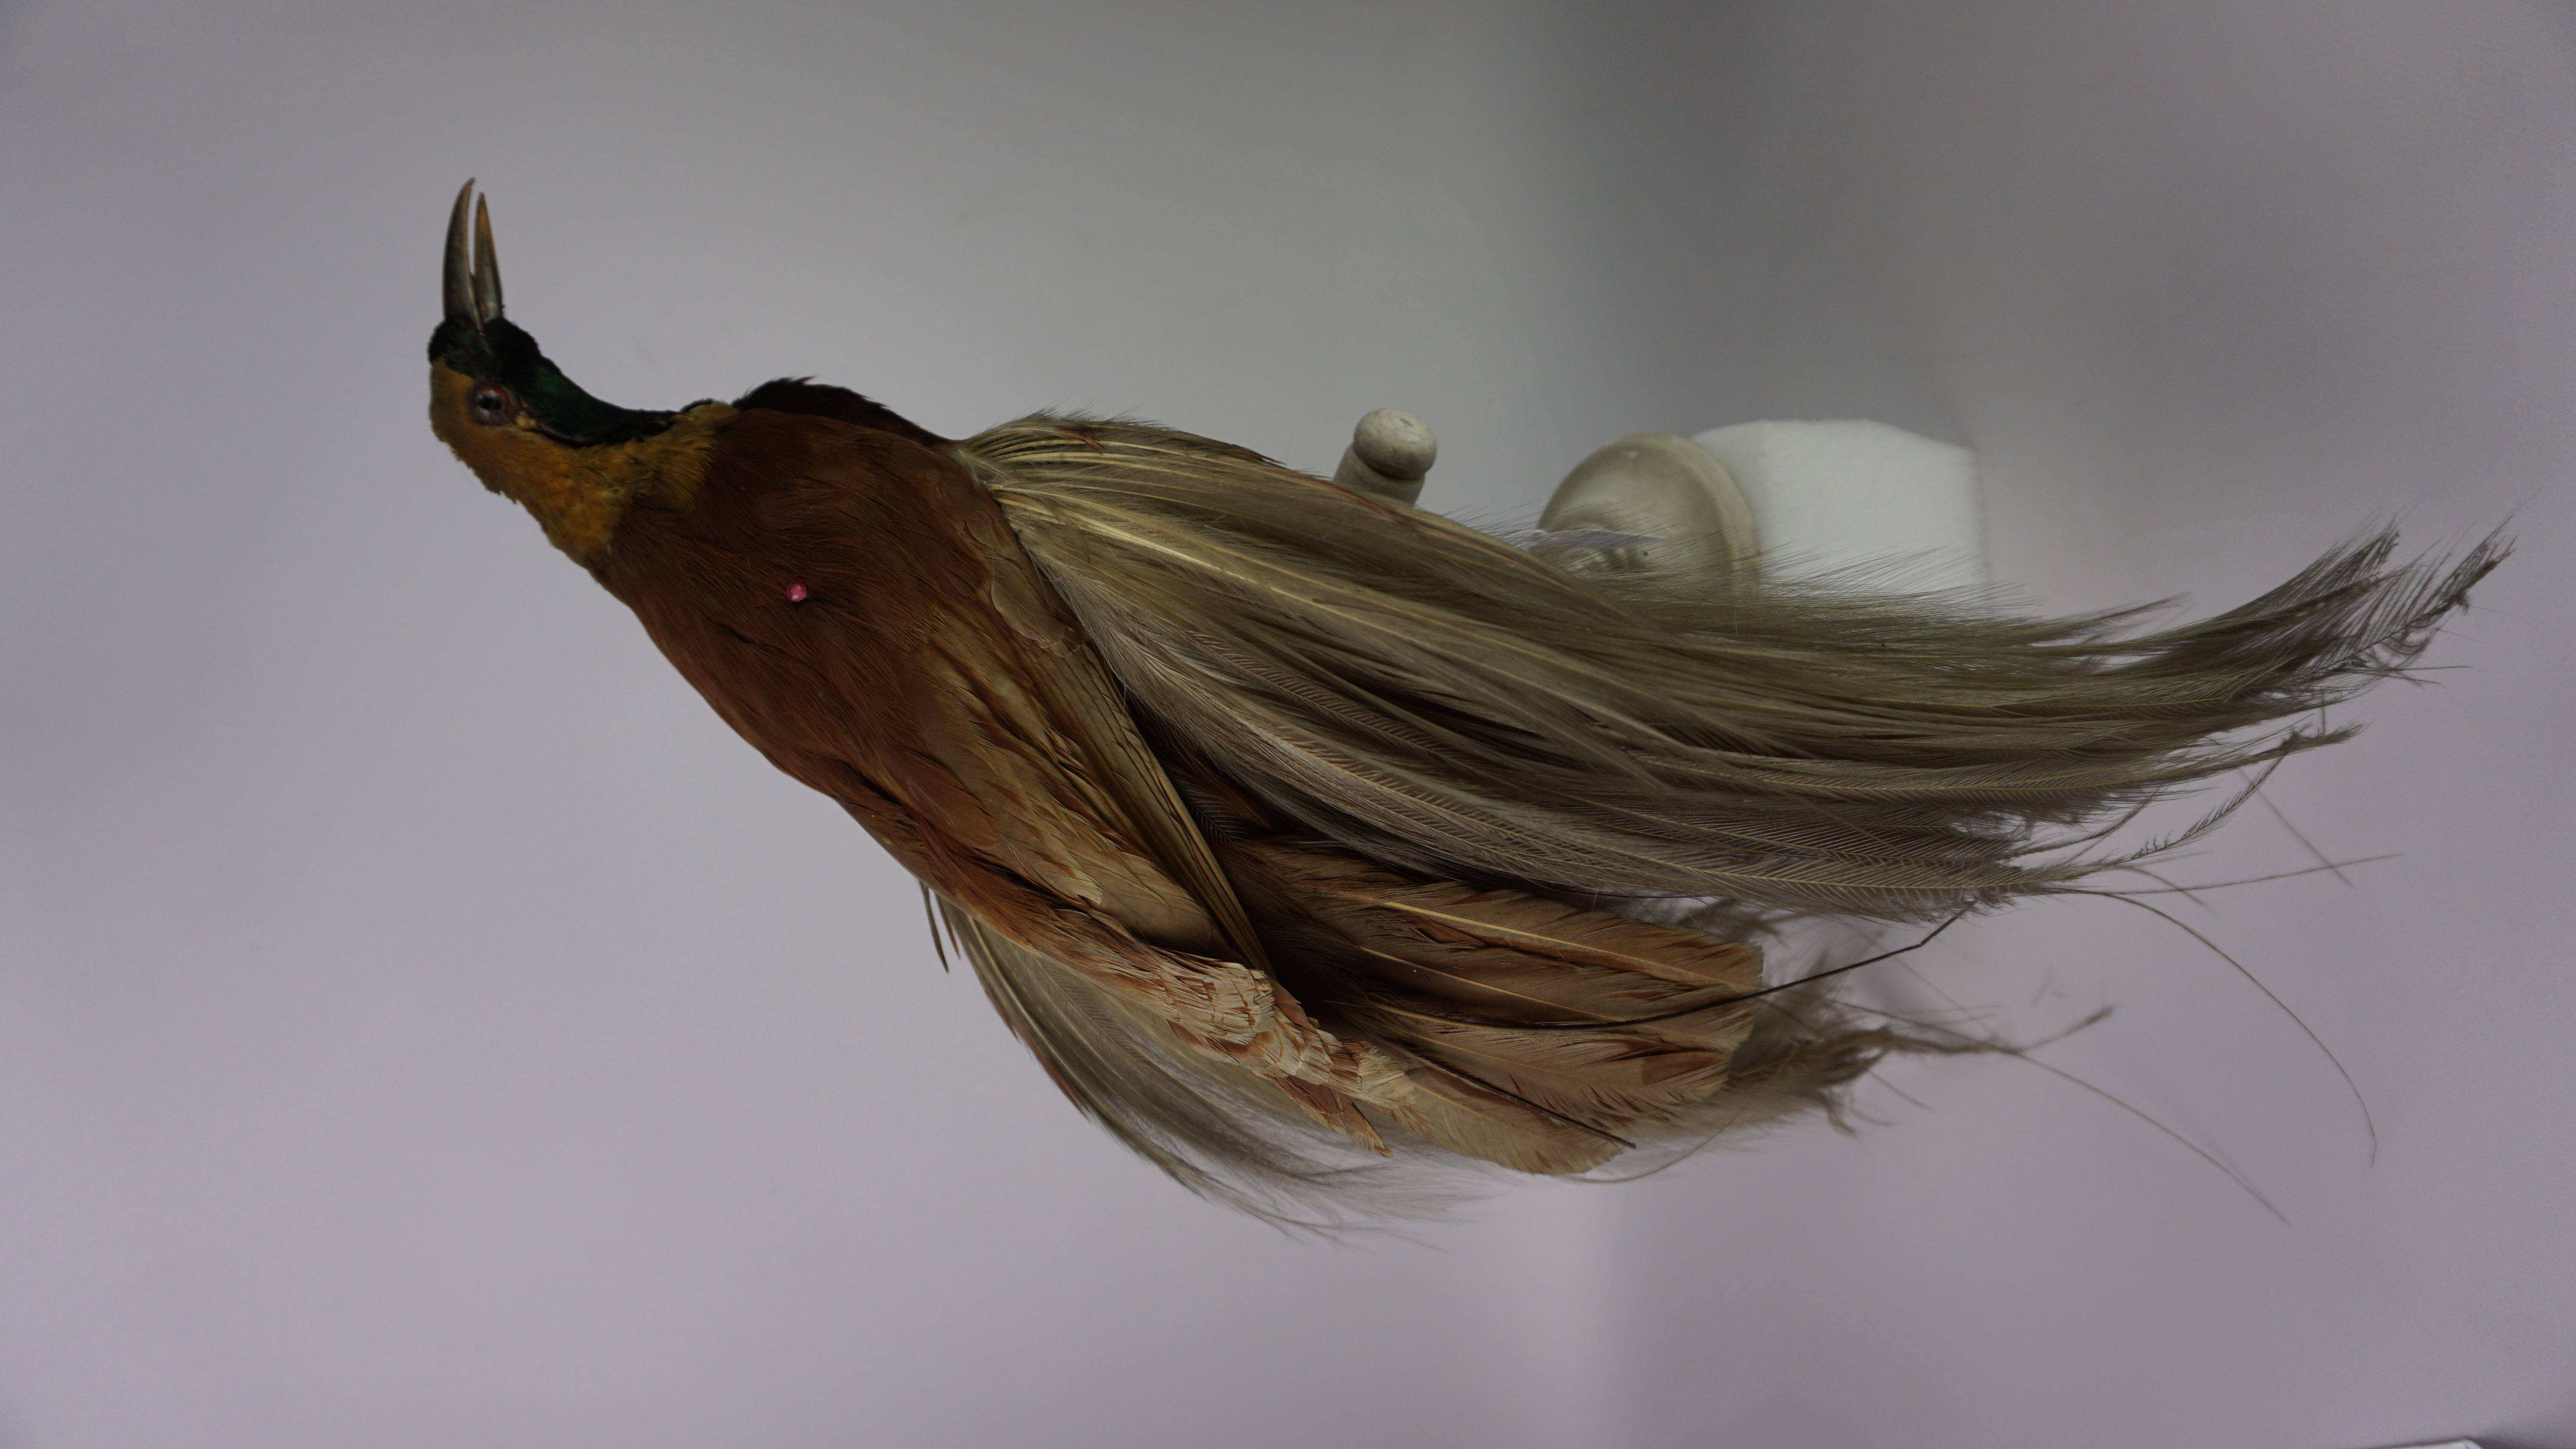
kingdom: Animalia
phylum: Chordata
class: Aves
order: Passeriformes
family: Paradisaeidae
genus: Paradisaea
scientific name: Paradisaea apoda
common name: Greater bird-of-paradise
